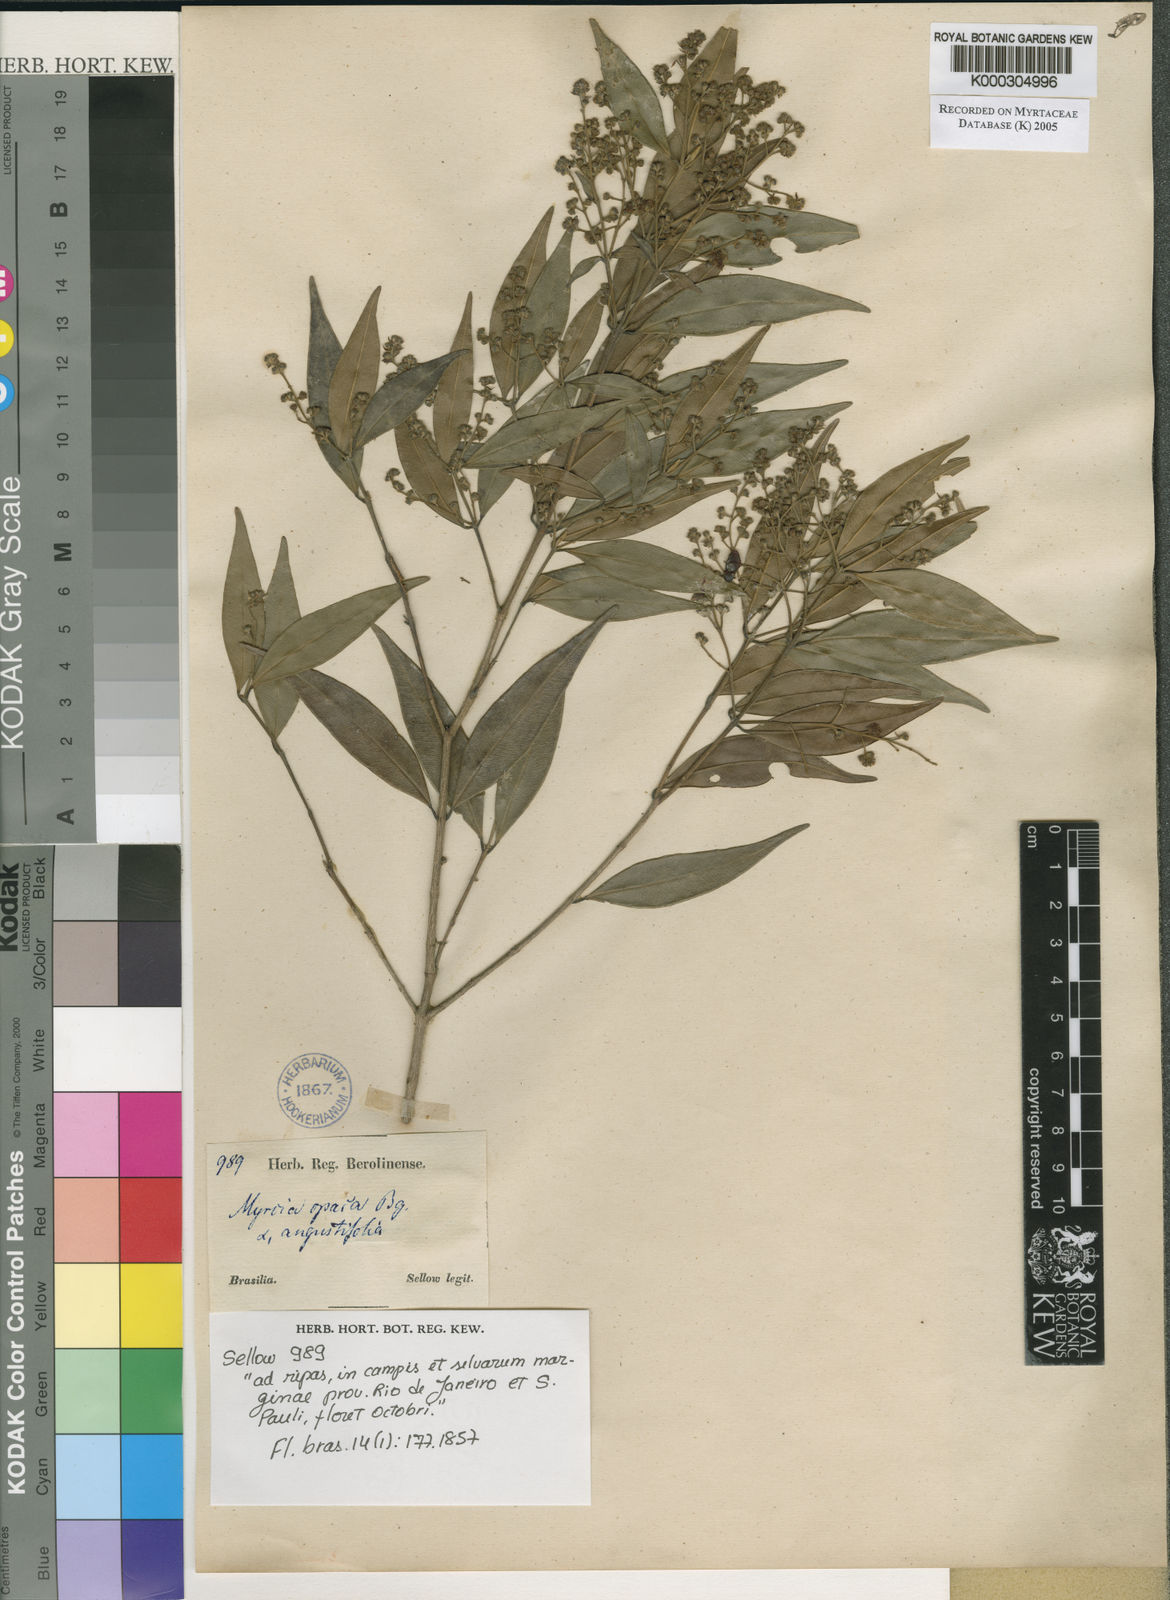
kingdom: Plantae
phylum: Tracheophyta
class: Magnoliopsida
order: Myrtales
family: Myrtaceae
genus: Myrcia
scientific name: Myrcia splendens
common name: Surinam cherry
